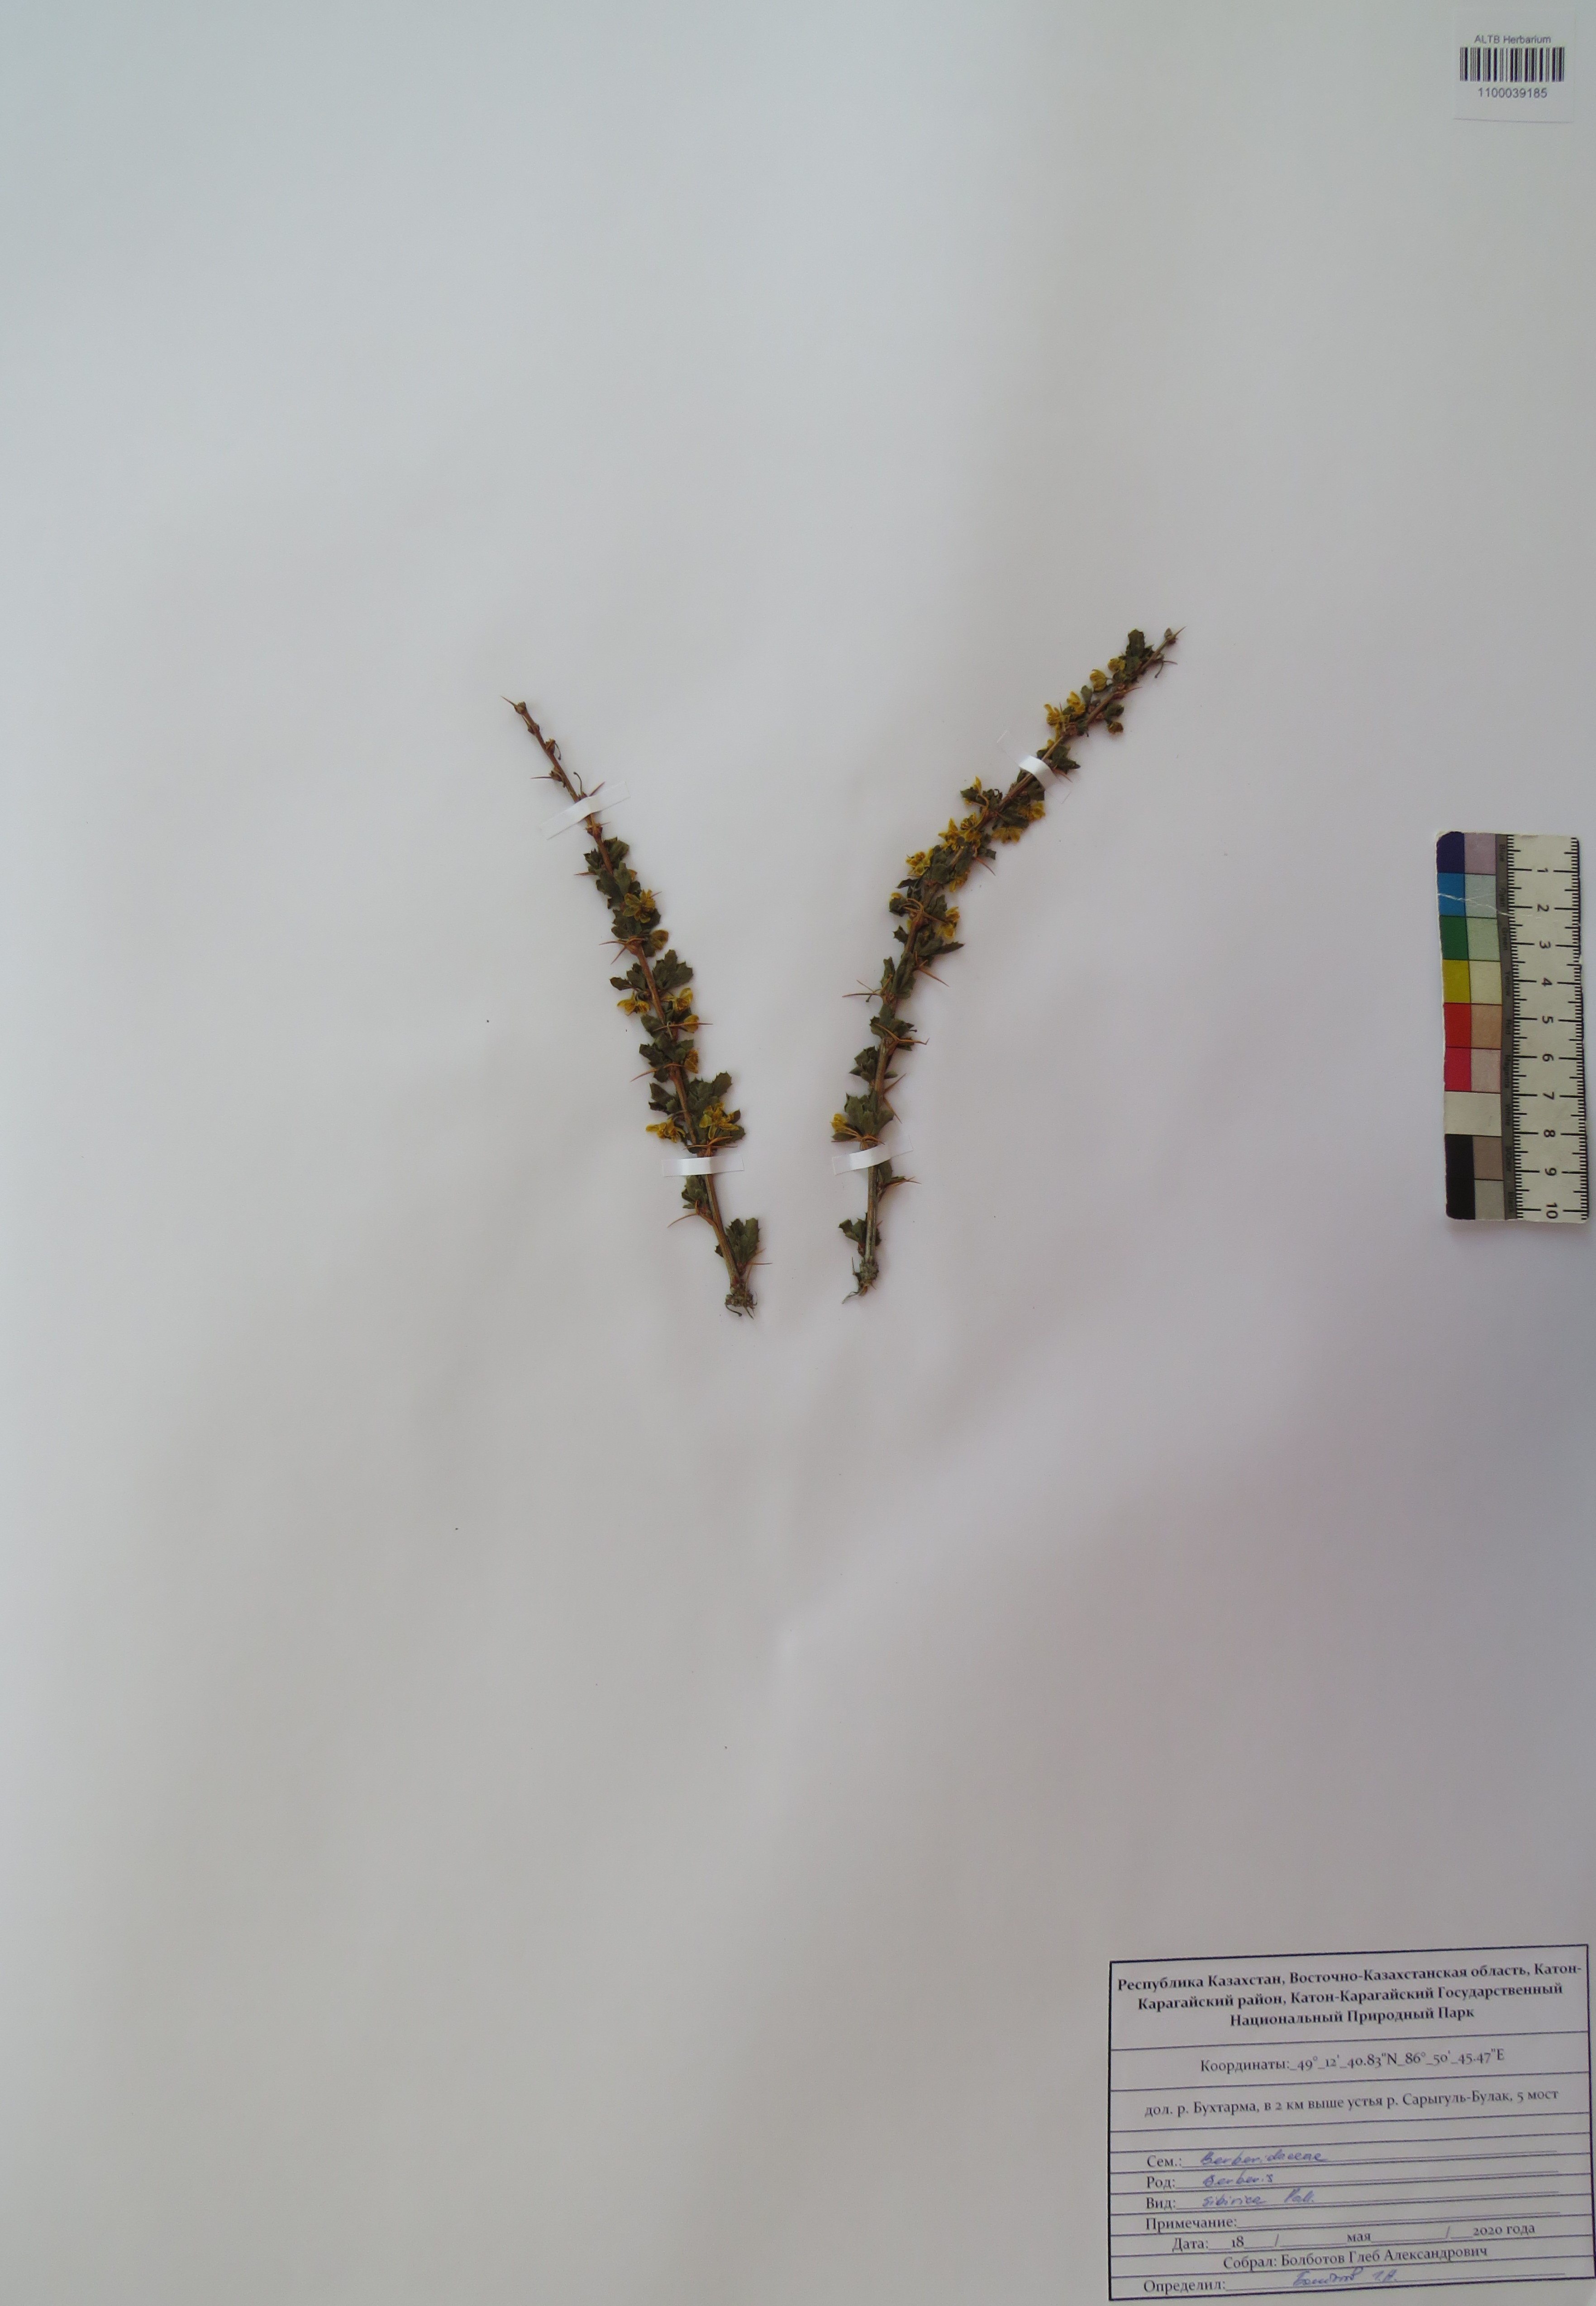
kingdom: Plantae
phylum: Tracheophyta
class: Magnoliopsida
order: Ranunculales
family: Berberidaceae
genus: Berberis
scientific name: Berberis sibirica
